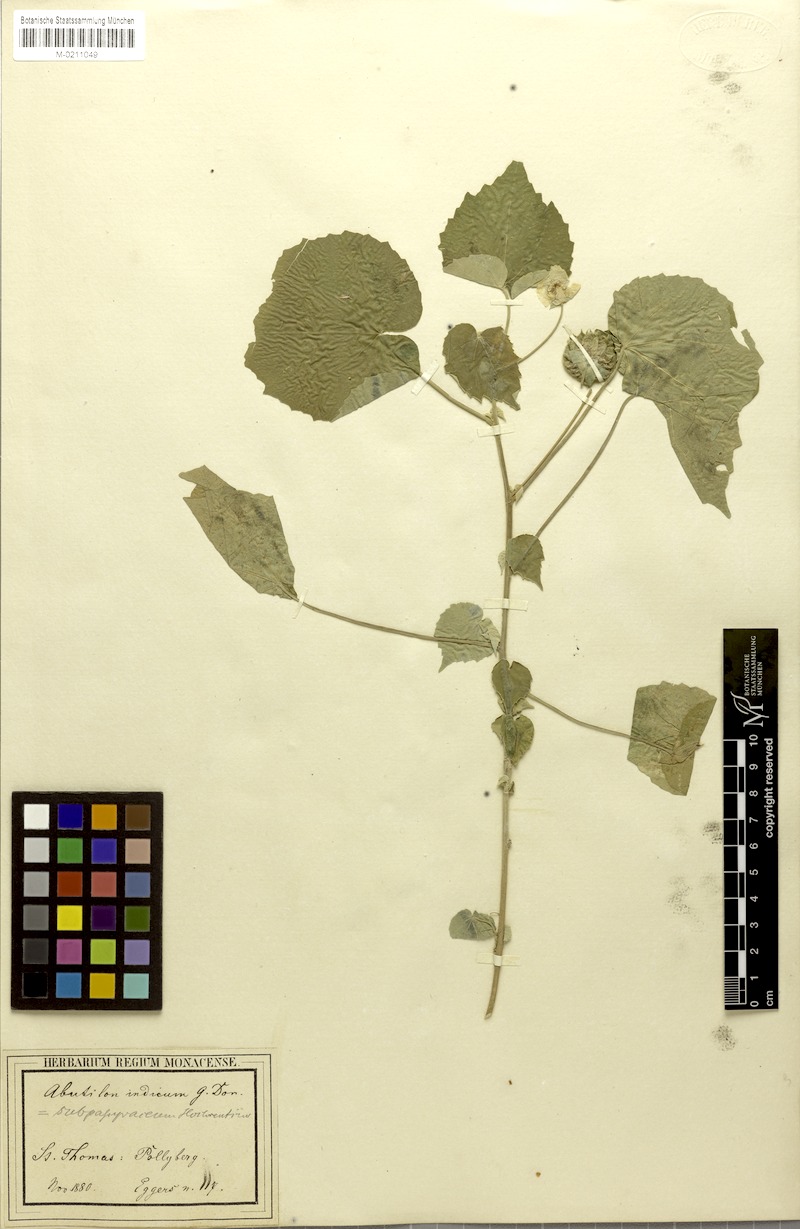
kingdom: Plantae
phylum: Tracheophyta
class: Magnoliopsida
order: Malvales
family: Malvaceae
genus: Abutilon
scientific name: Abutilon indicum
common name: Indian abutilon
